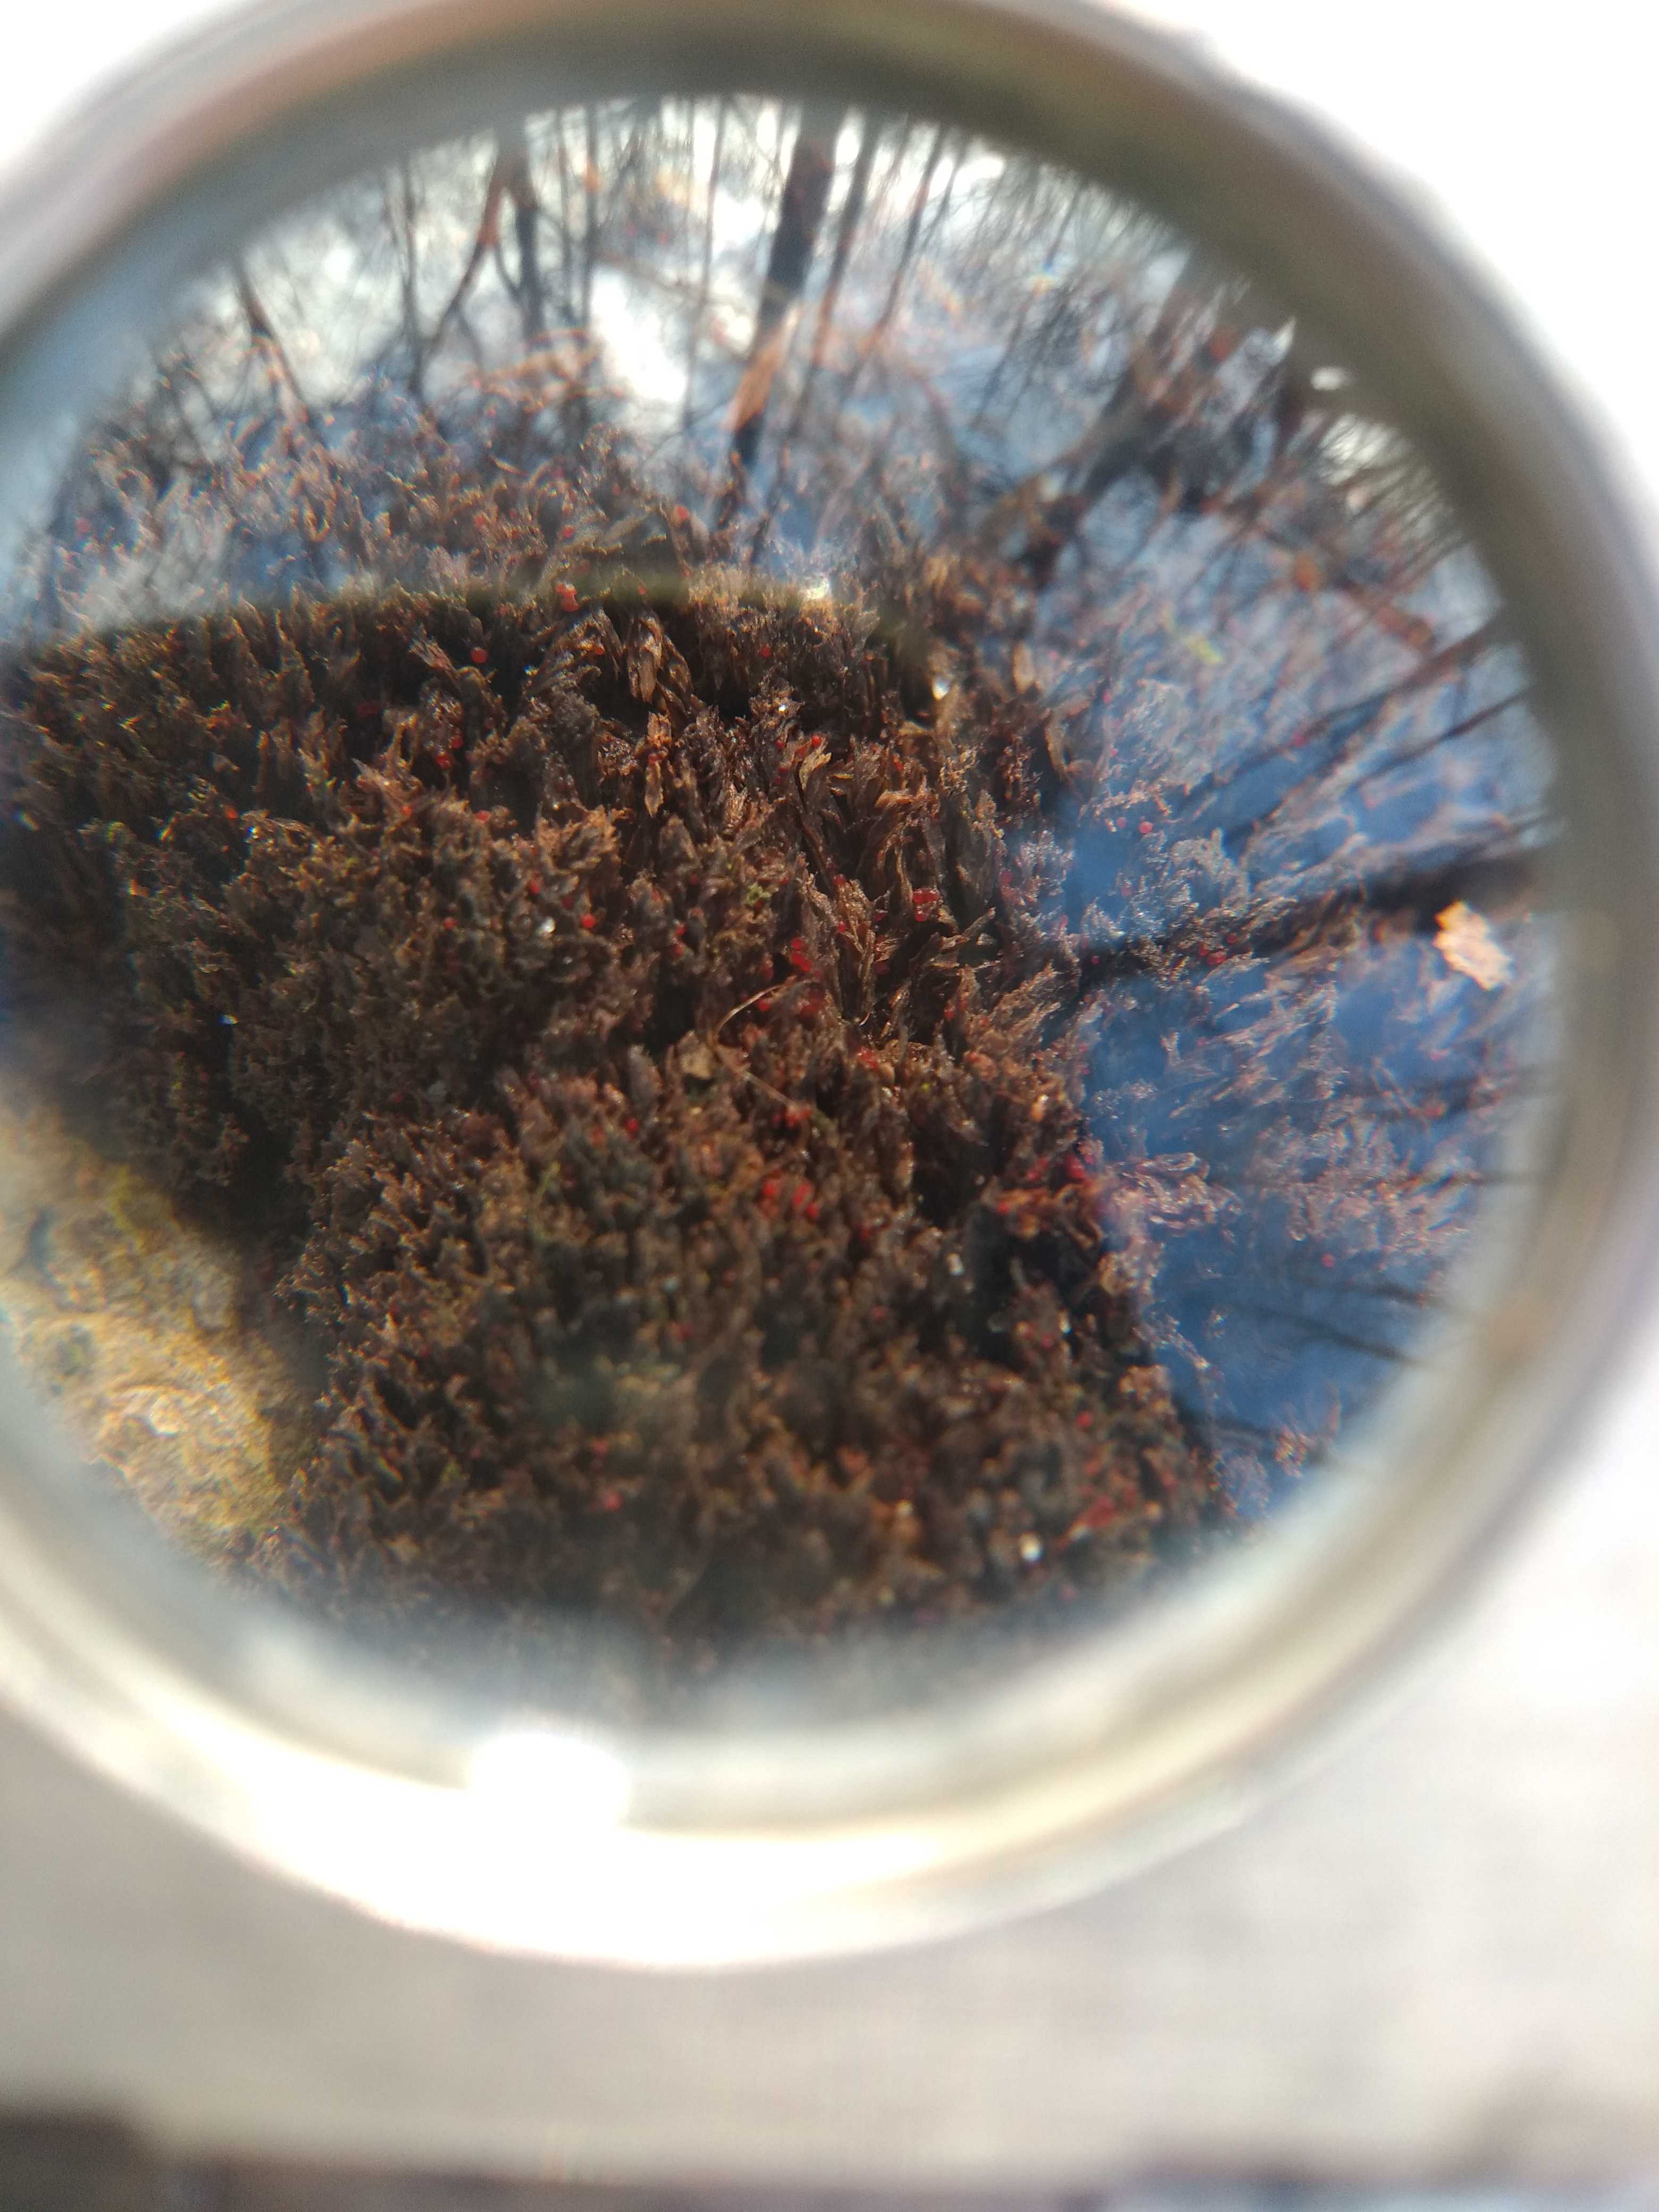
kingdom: Fungi
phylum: Ascomycota
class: Sordariomycetes
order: Hypocreales
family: Nectriaceae
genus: Cosmospora
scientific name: Cosmospora coccinea
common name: spejlpore-cinnobersvamp
